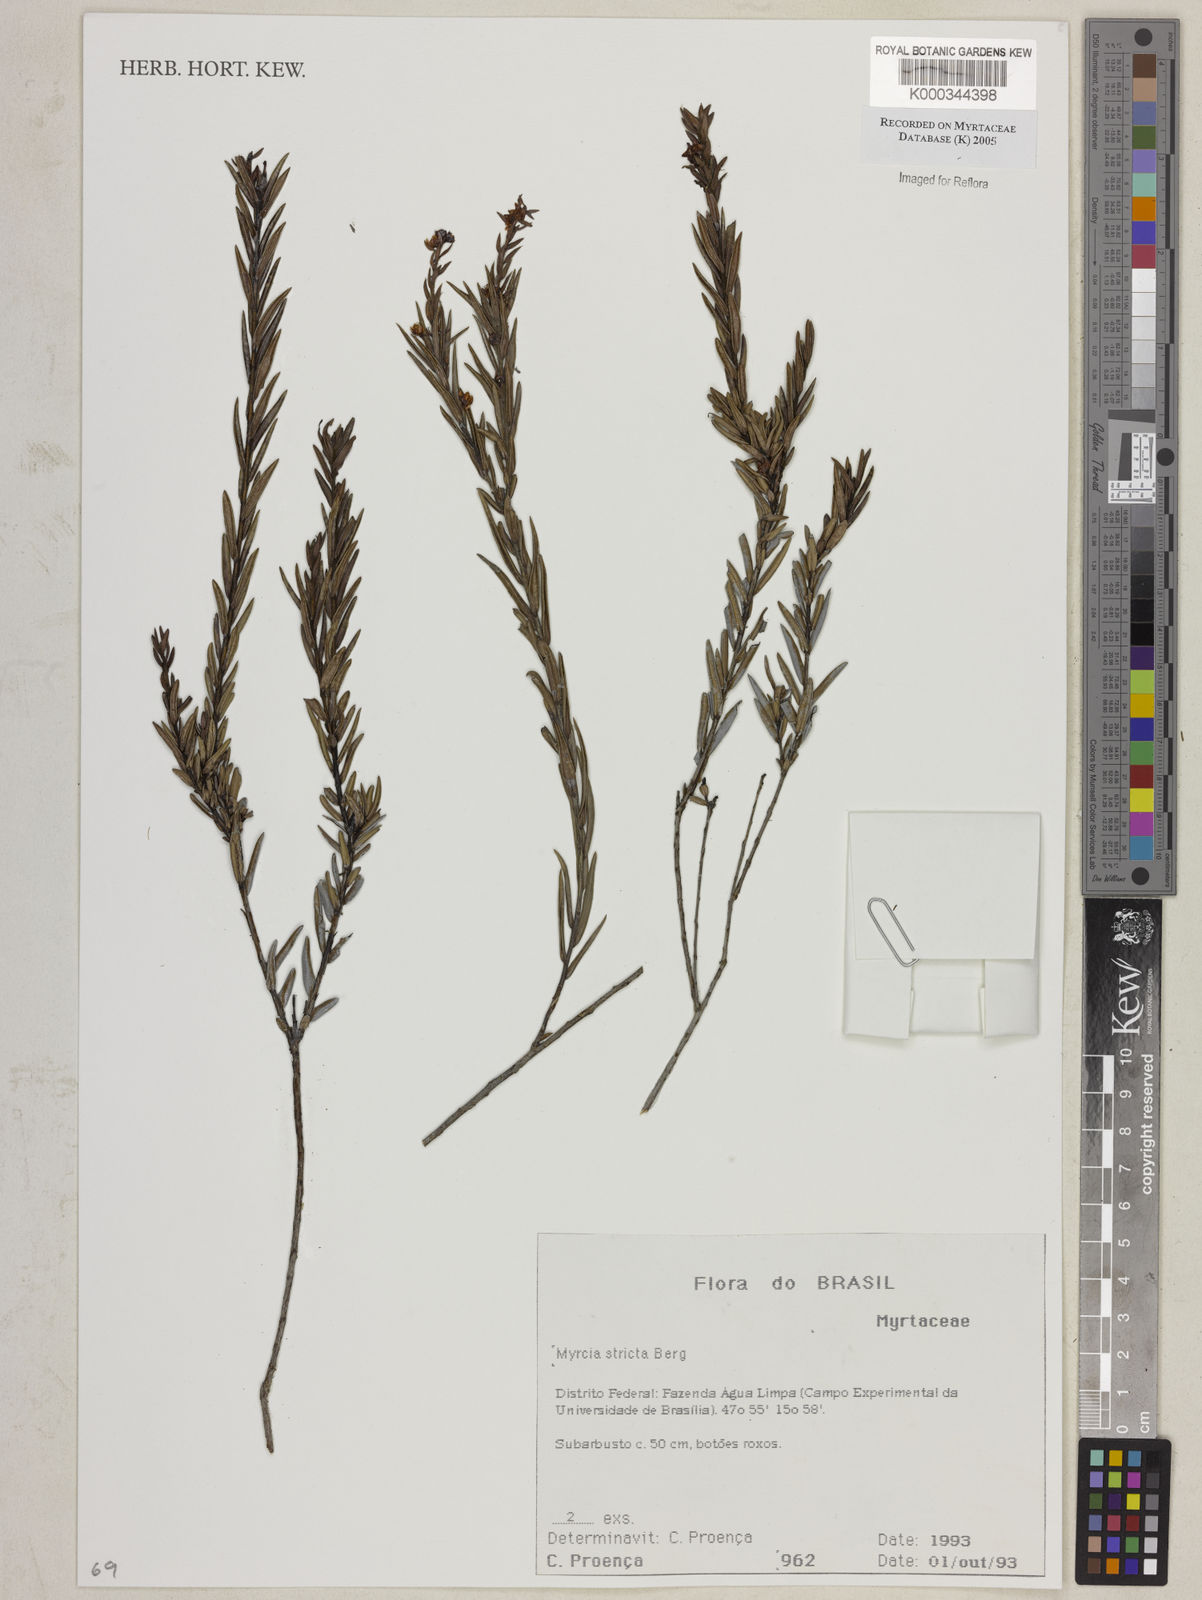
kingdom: Plantae
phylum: Tracheophyta
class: Magnoliopsida
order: Myrtales
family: Myrtaceae
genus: Myrcia
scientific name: Myrcia stricta
